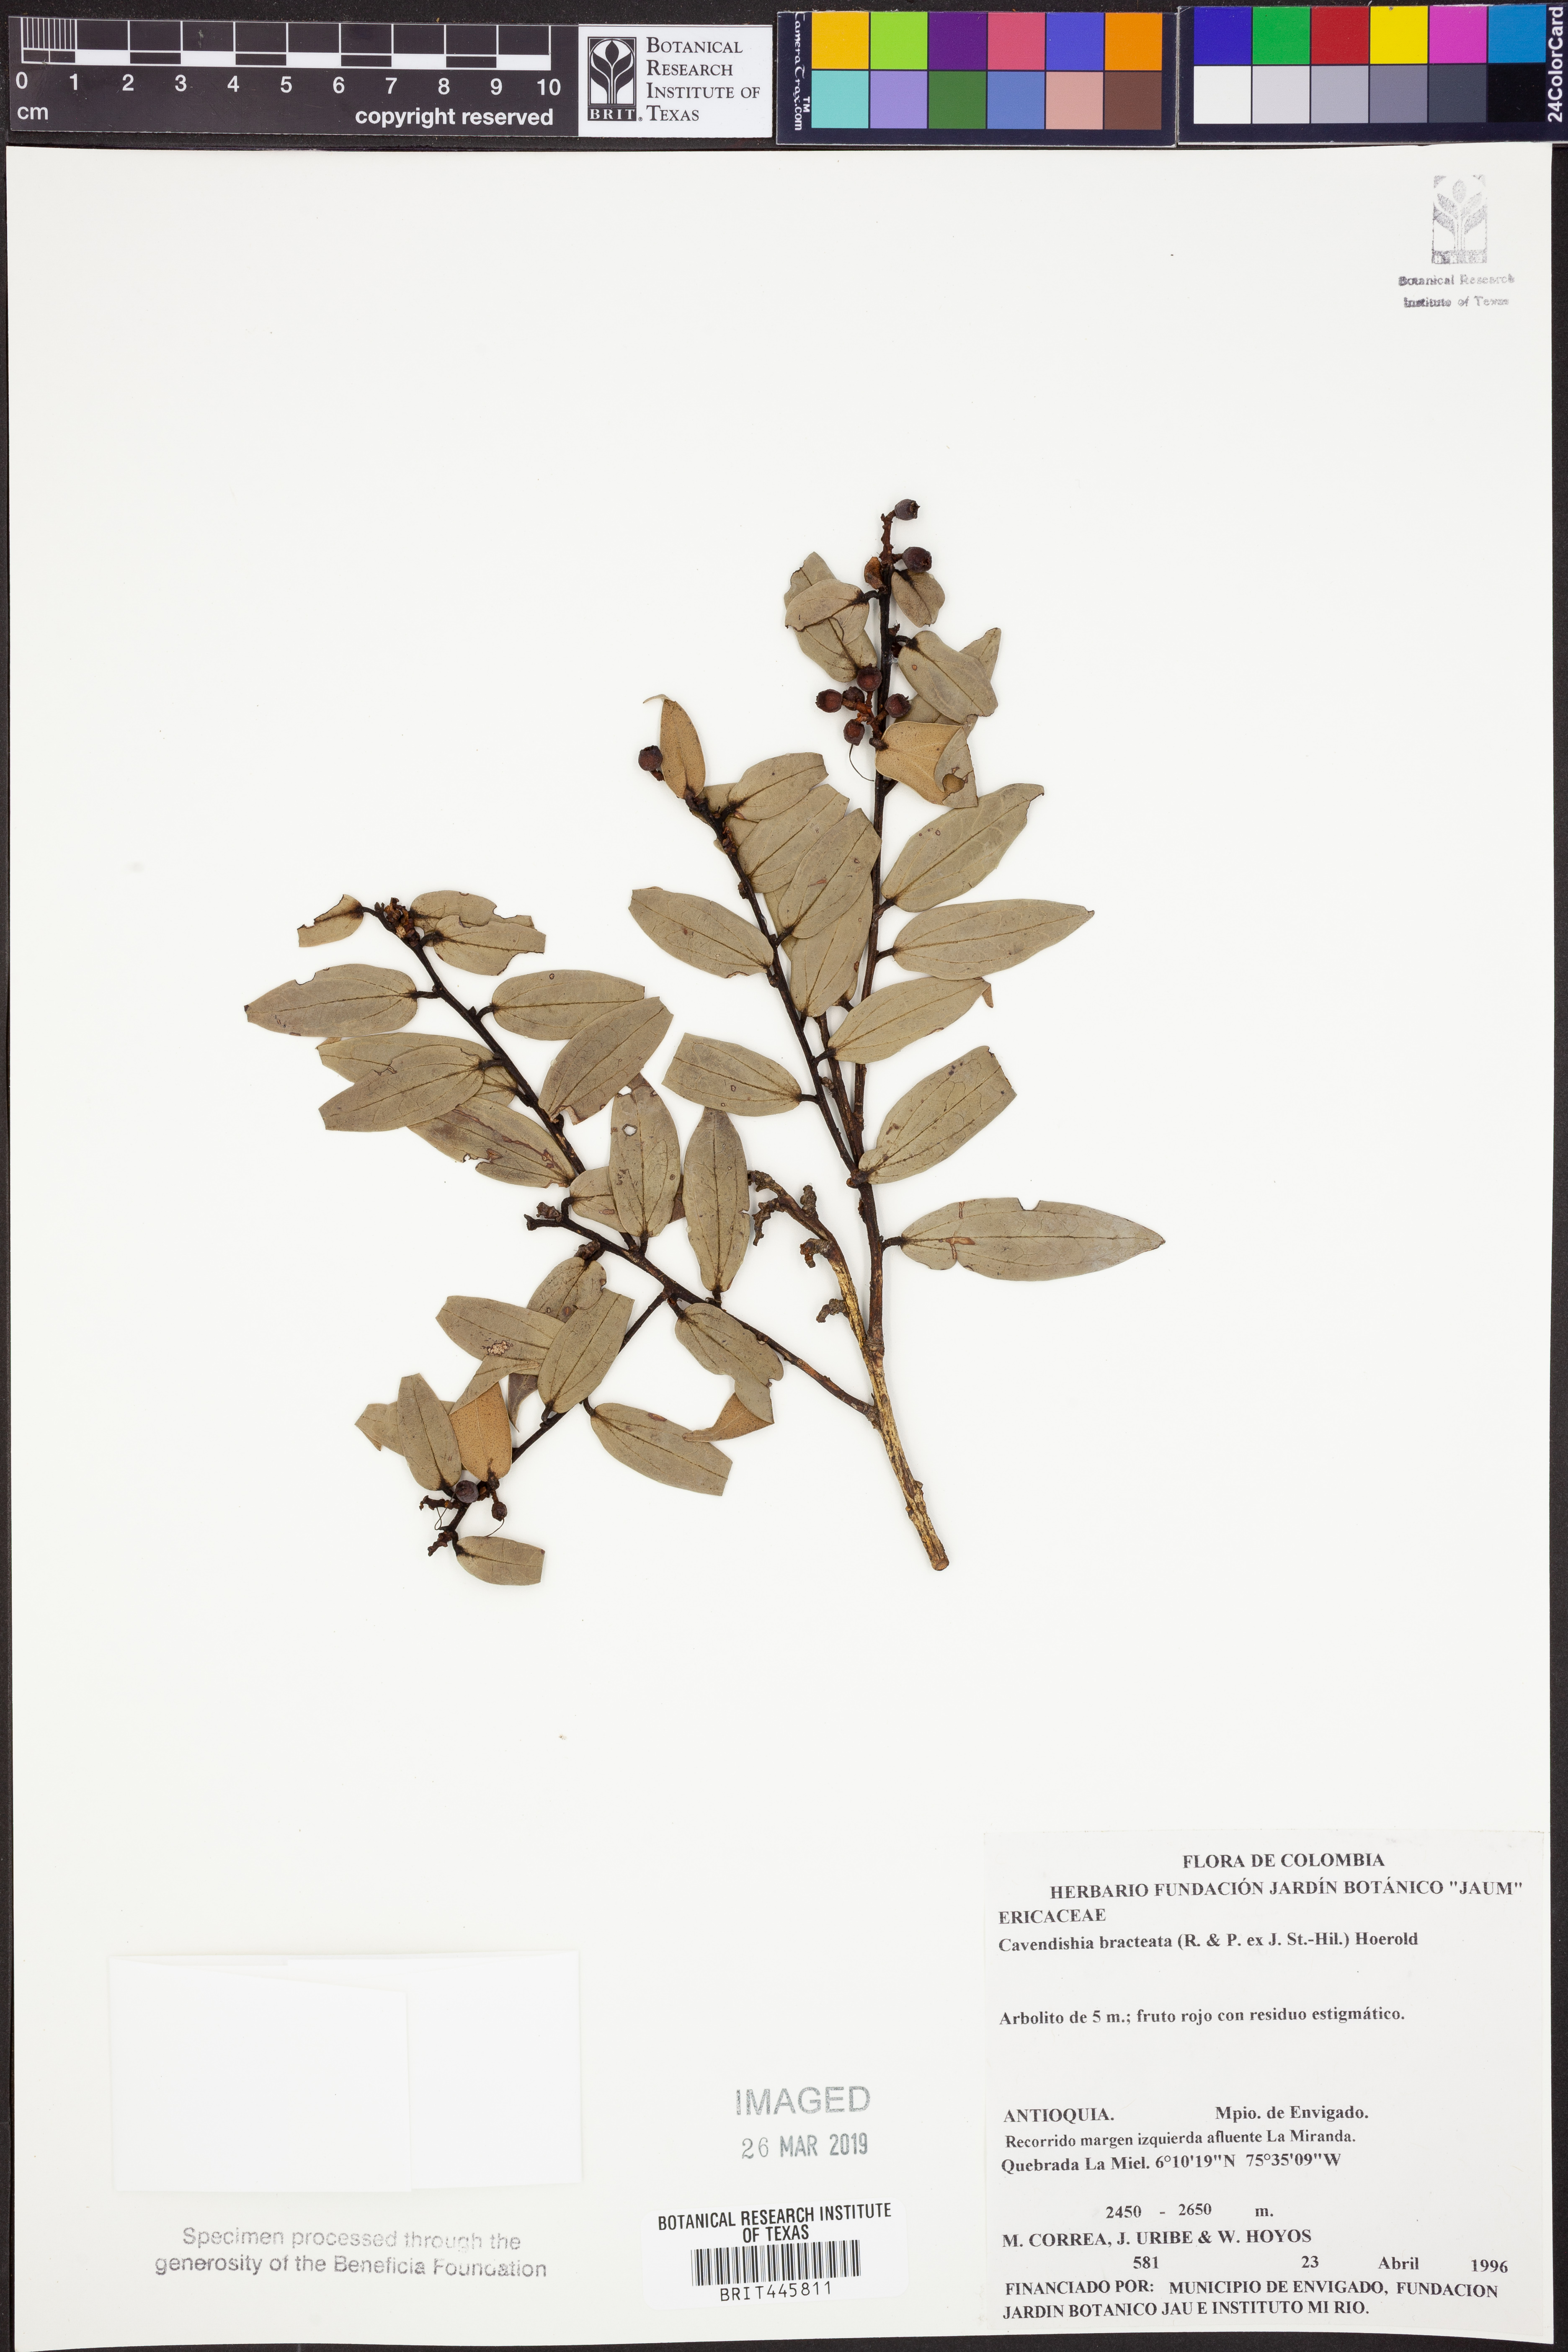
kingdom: Plantae
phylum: Tracheophyta
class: Magnoliopsida
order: Ericales
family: Ericaceae
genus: Cavendishia
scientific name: Cavendishia bracteata
